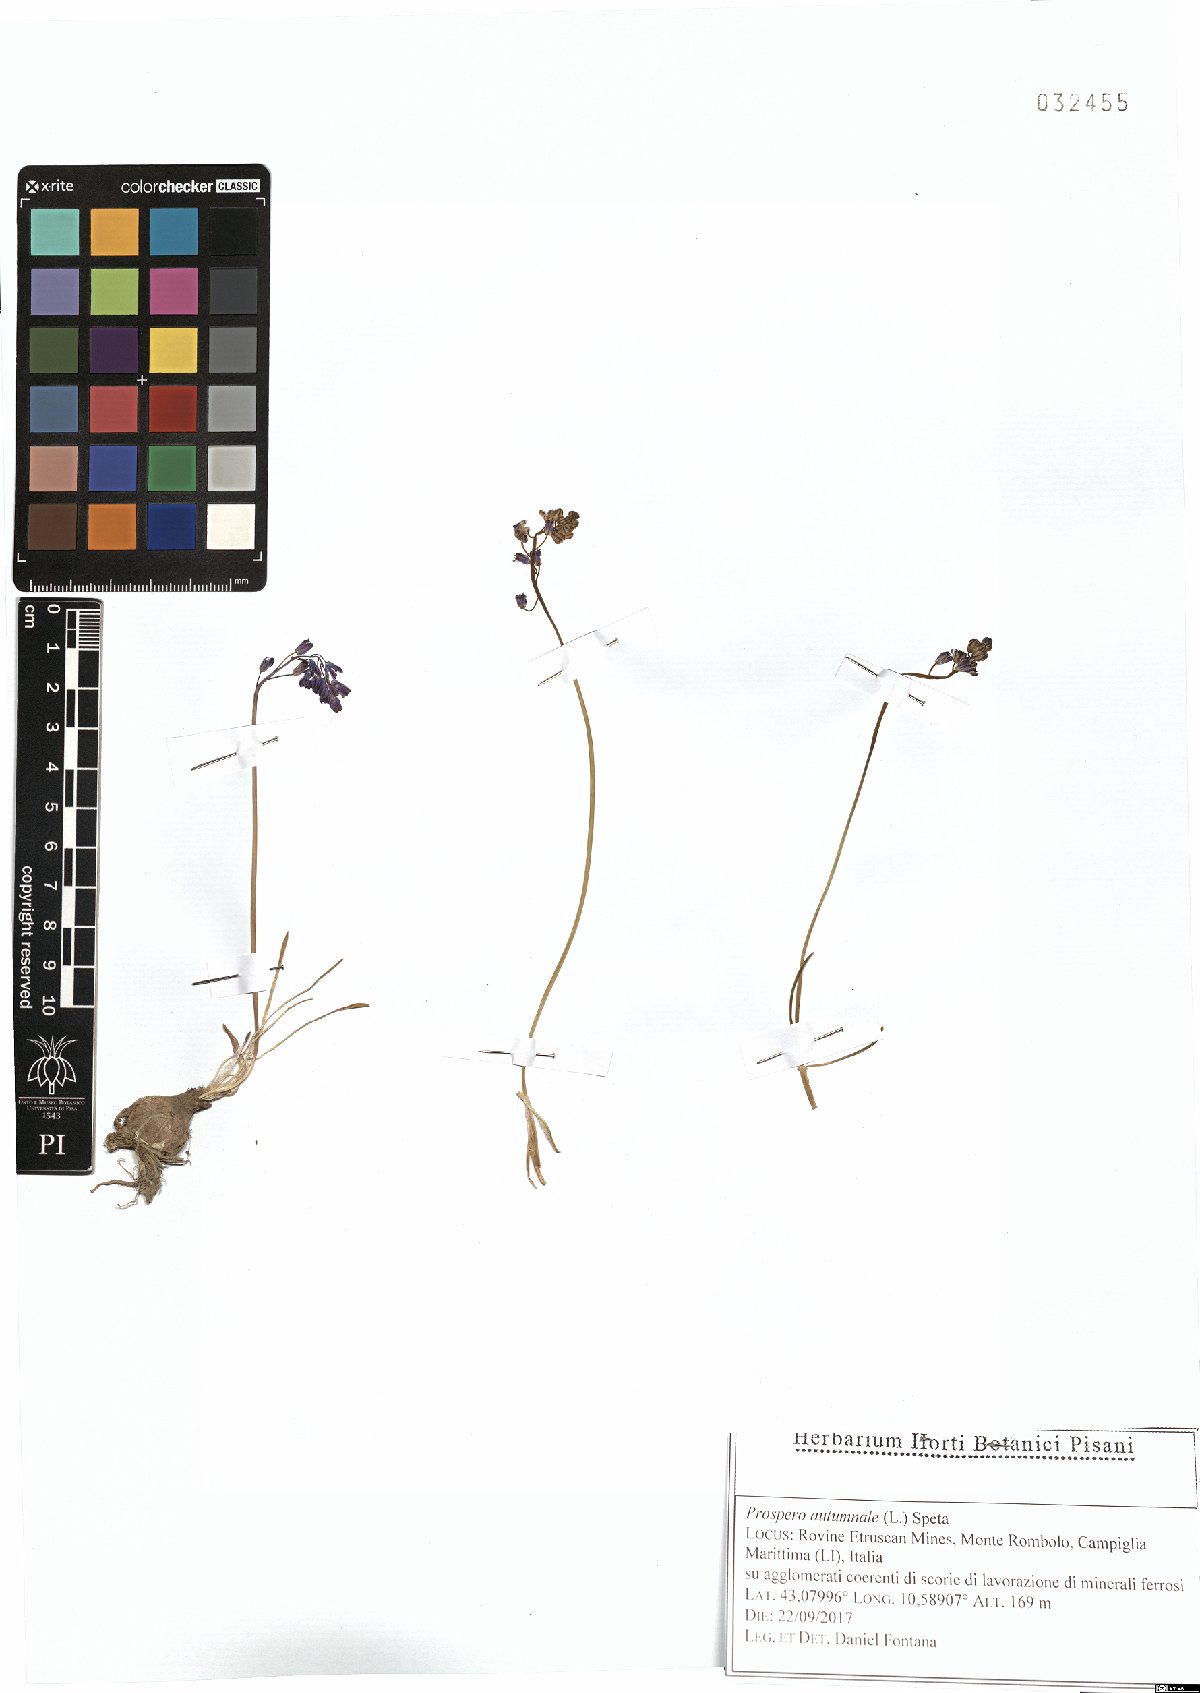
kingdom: Plantae
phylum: Tracheophyta
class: Liliopsida
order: Asparagales
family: Asparagaceae
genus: Prospero
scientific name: Prospero autumnale
